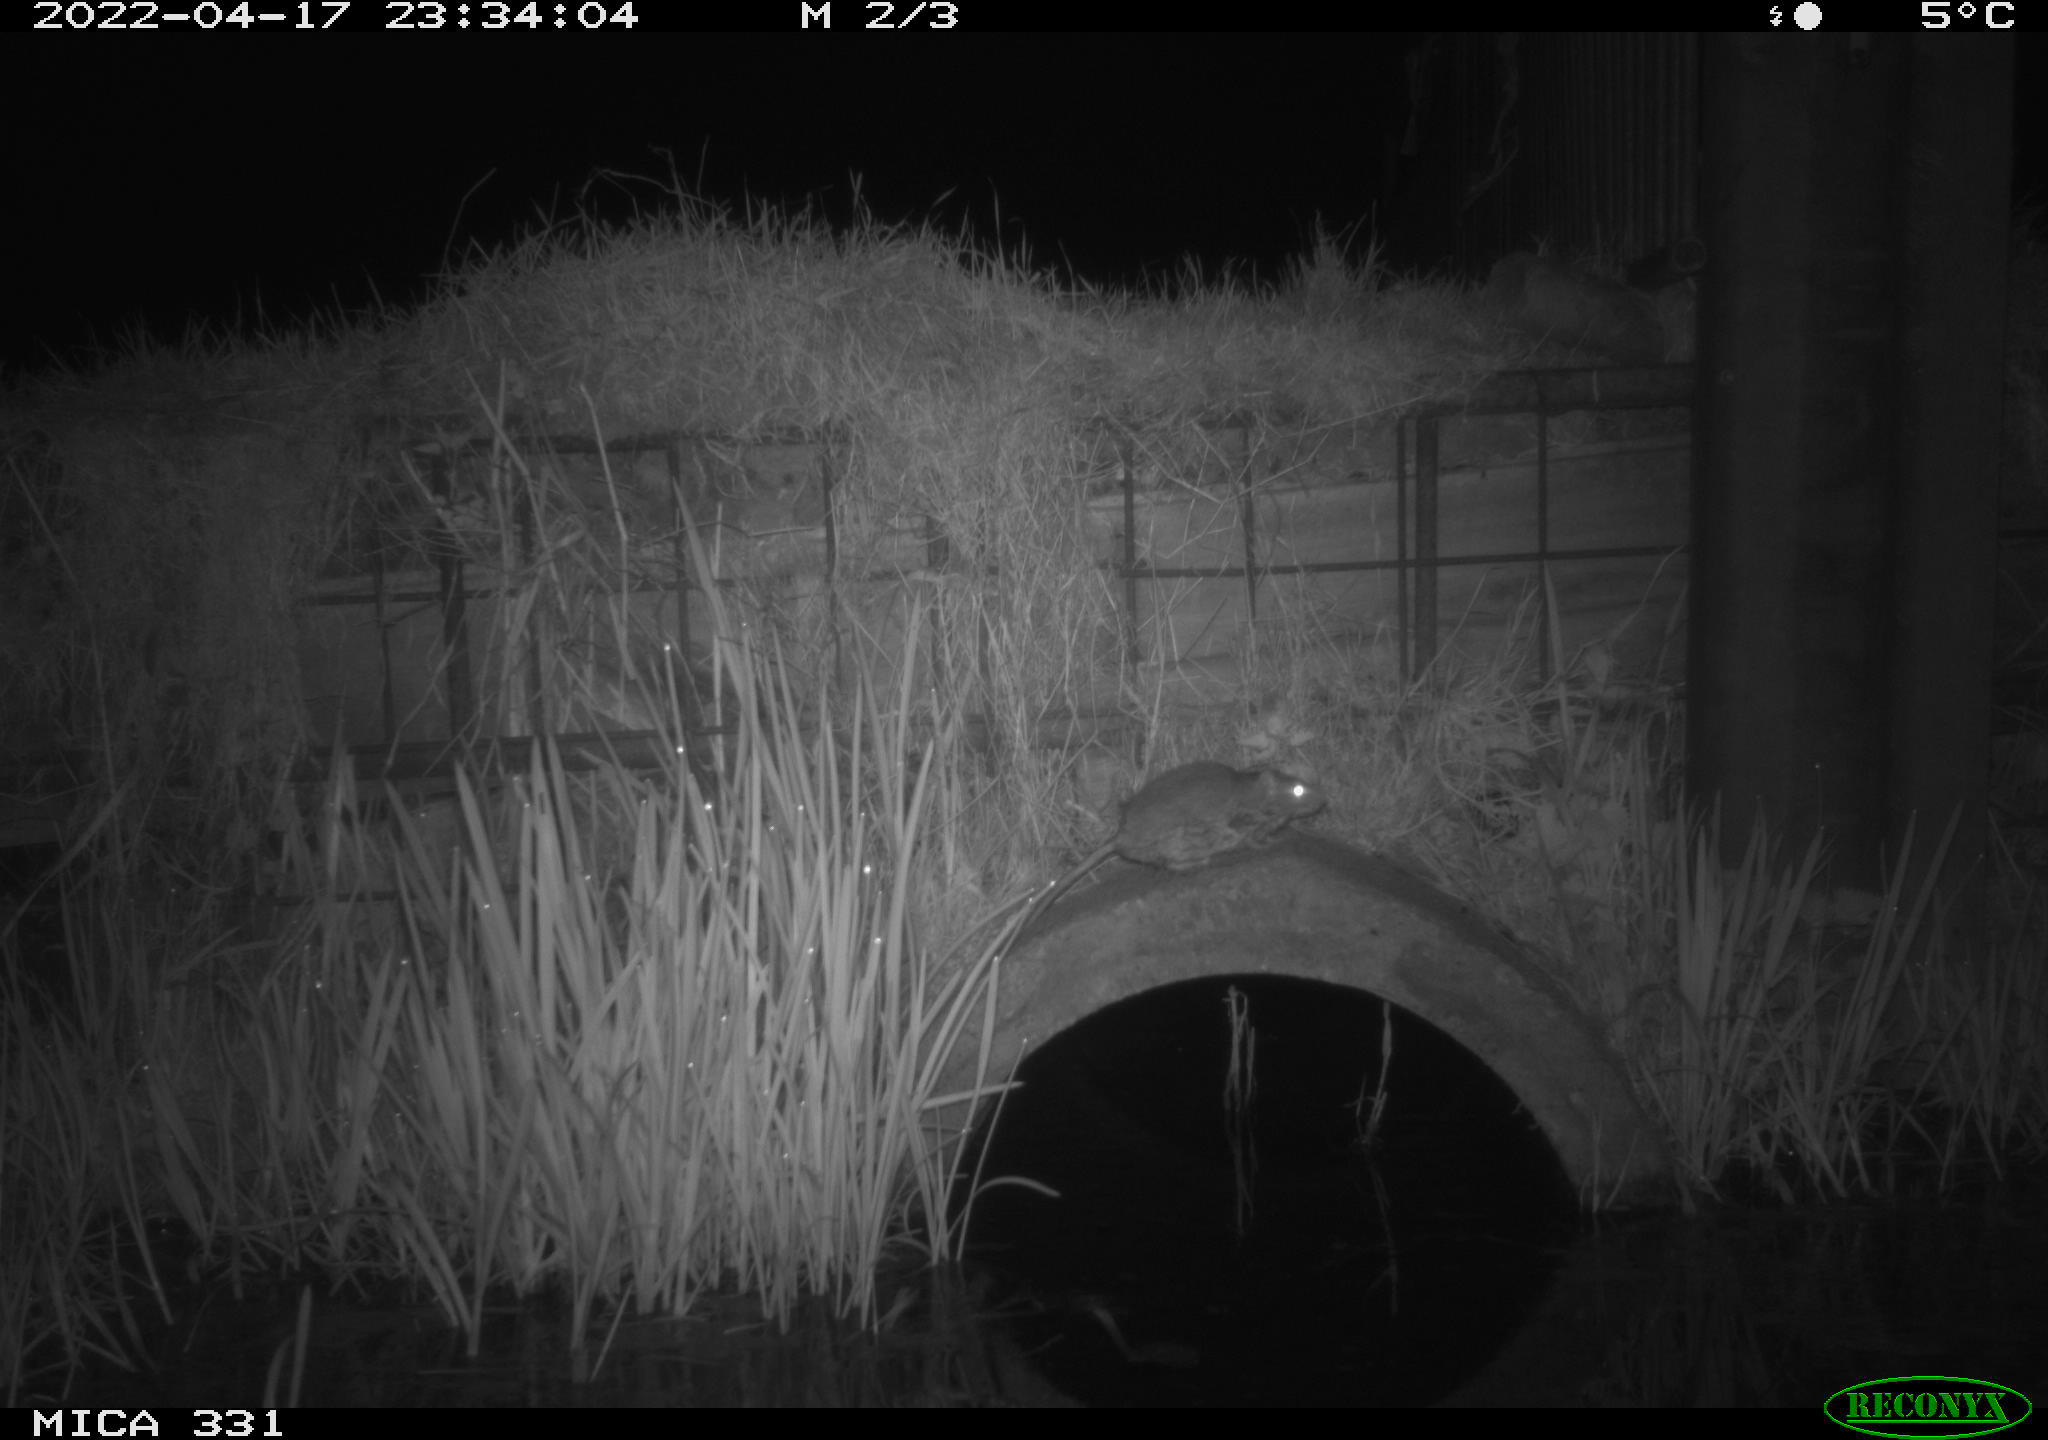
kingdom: Animalia
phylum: Chordata
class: Mammalia
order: Rodentia
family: Muridae
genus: Rattus
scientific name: Rattus norvegicus
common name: Brown rat
